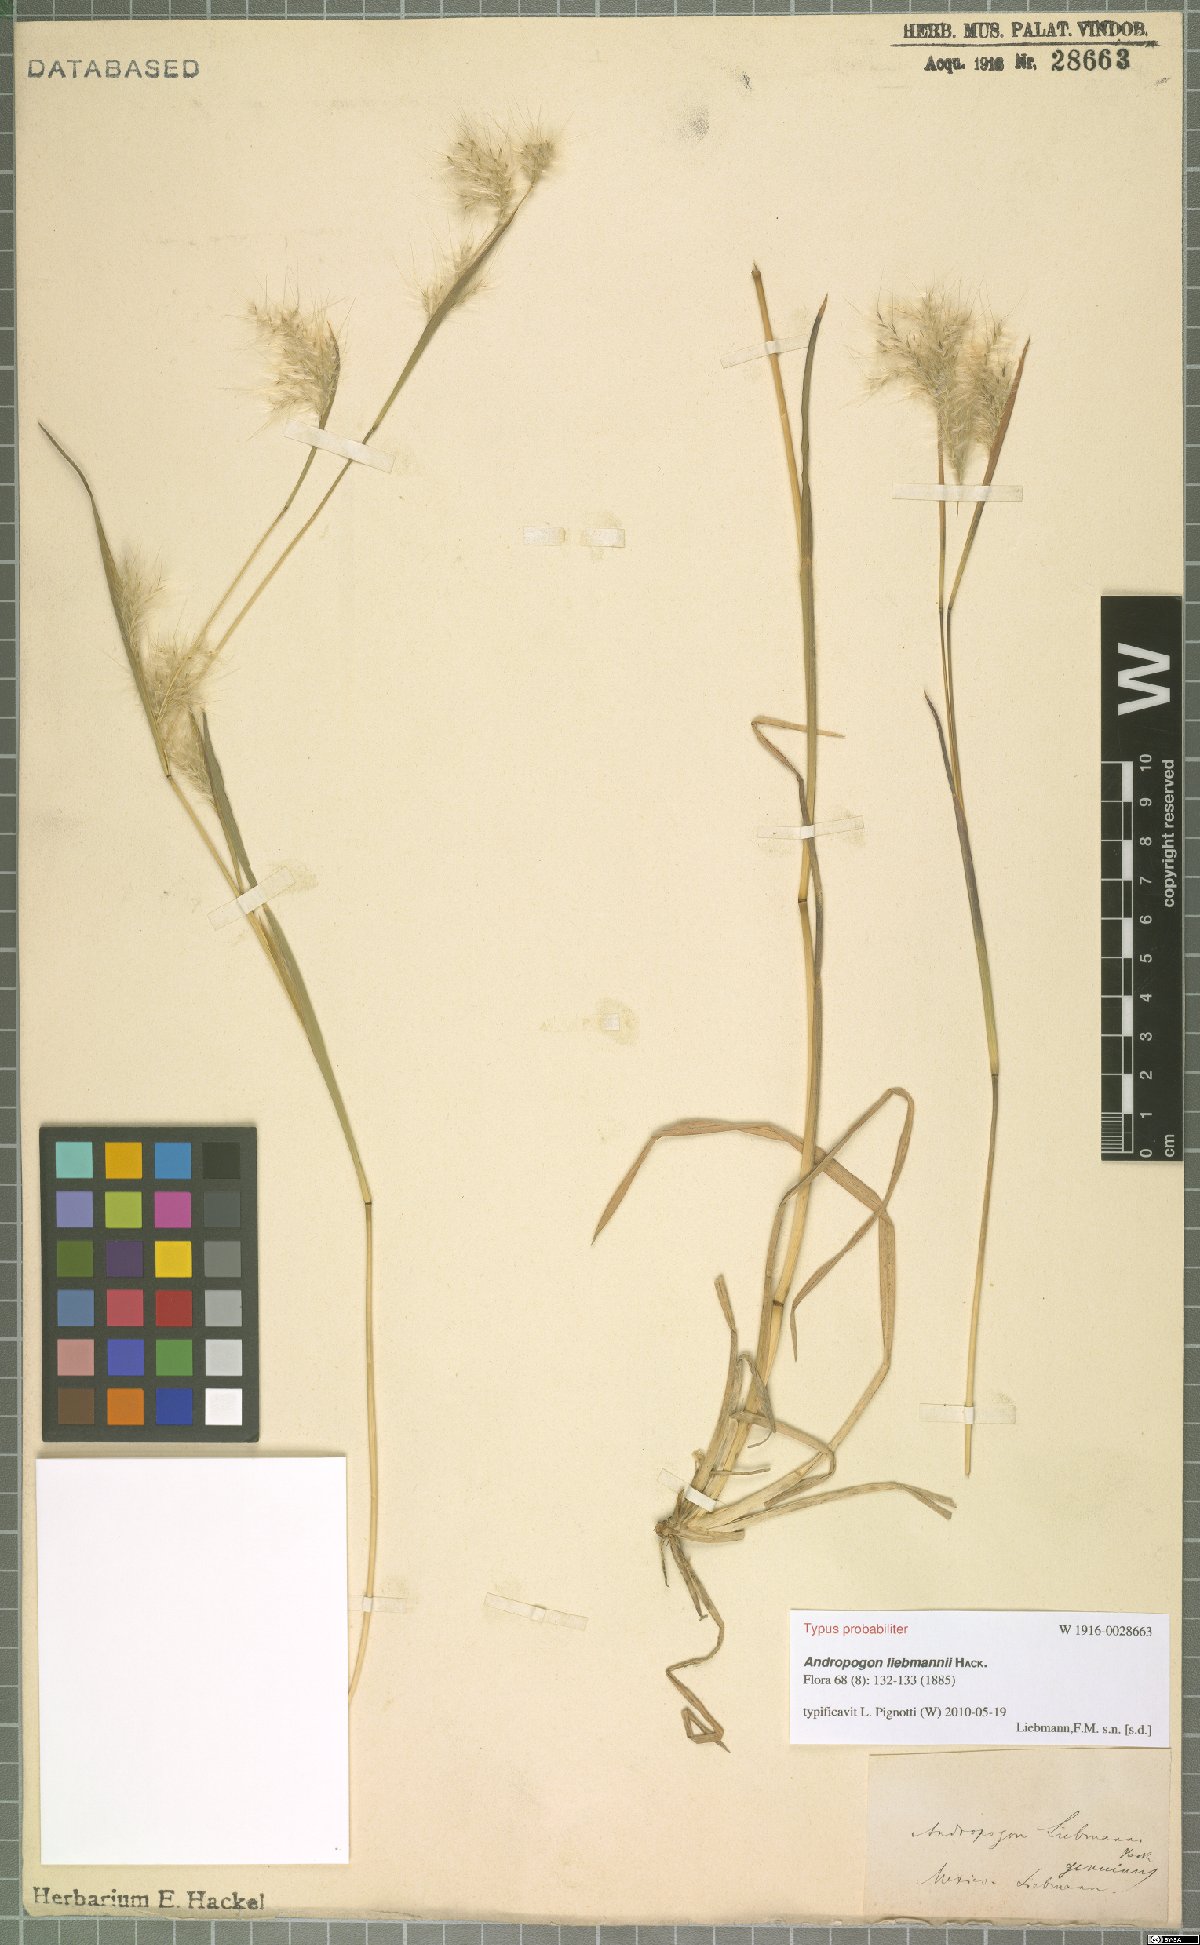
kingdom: Plantae
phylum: Tracheophyta
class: Liliopsida
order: Poales
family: Poaceae
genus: Andropogon
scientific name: Andropogon liebmannii
